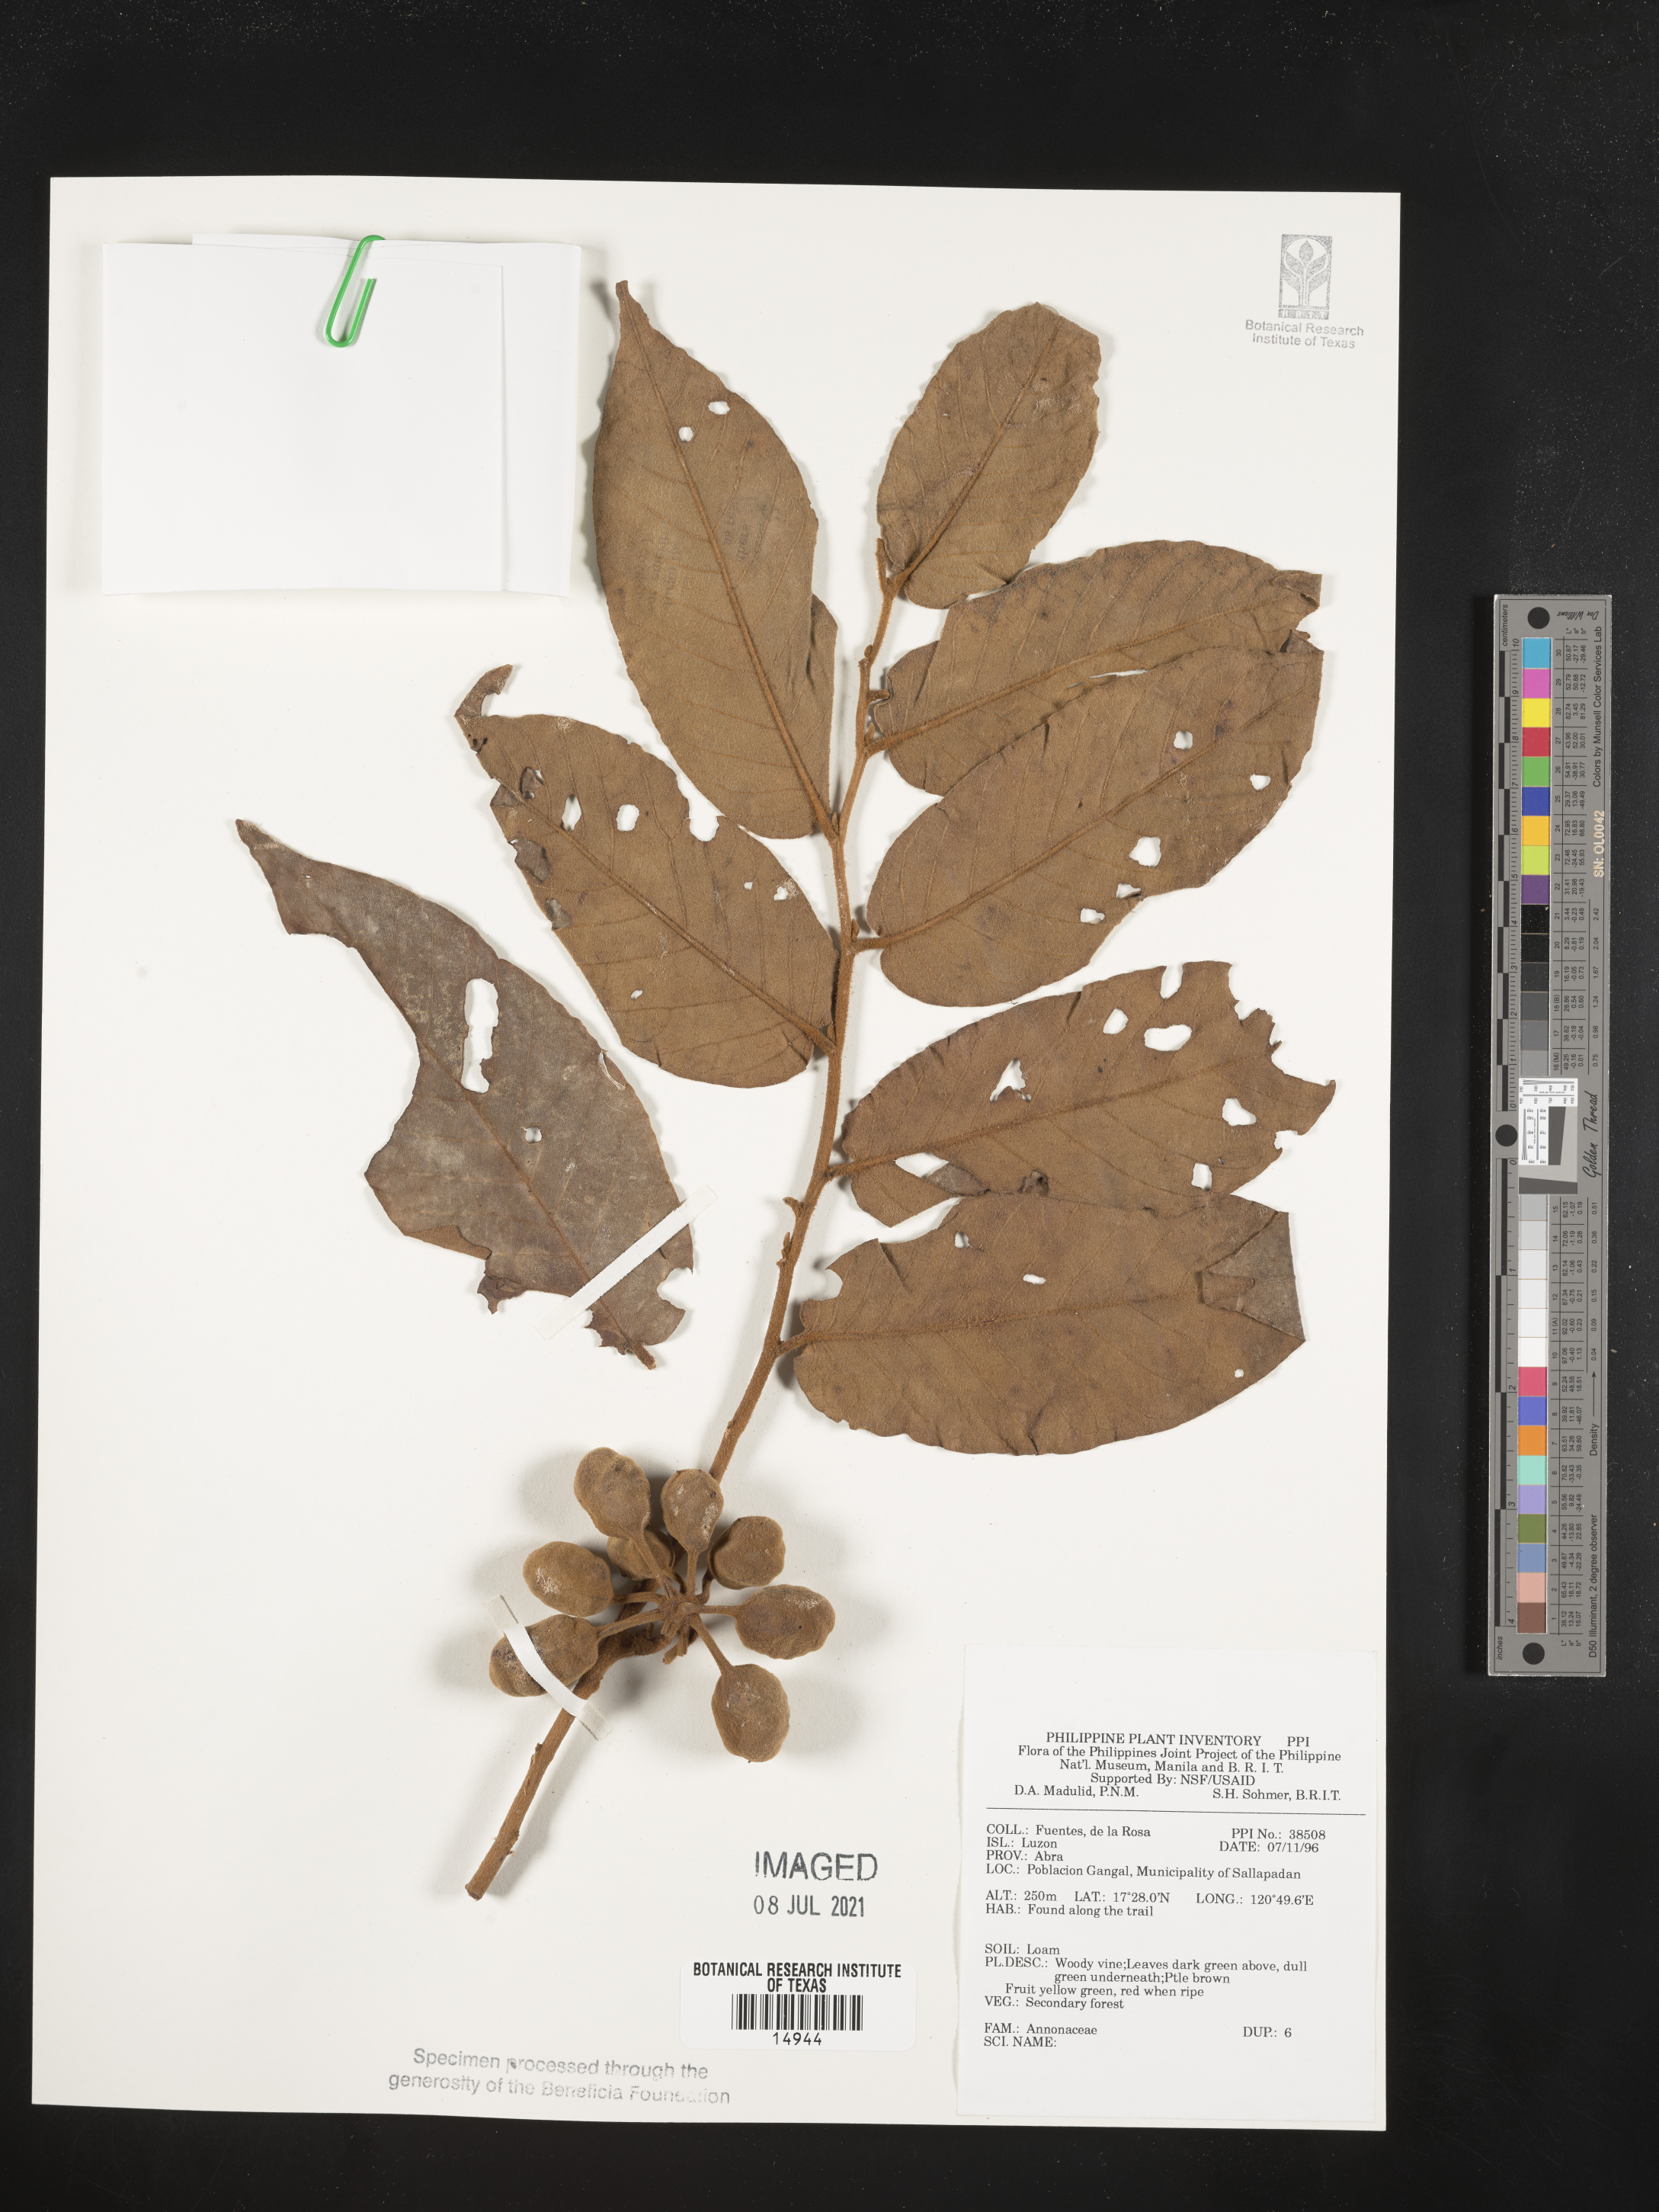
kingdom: Plantae
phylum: Tracheophyta
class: Magnoliopsida
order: Magnoliales
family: Annonaceae
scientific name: Annonaceae
